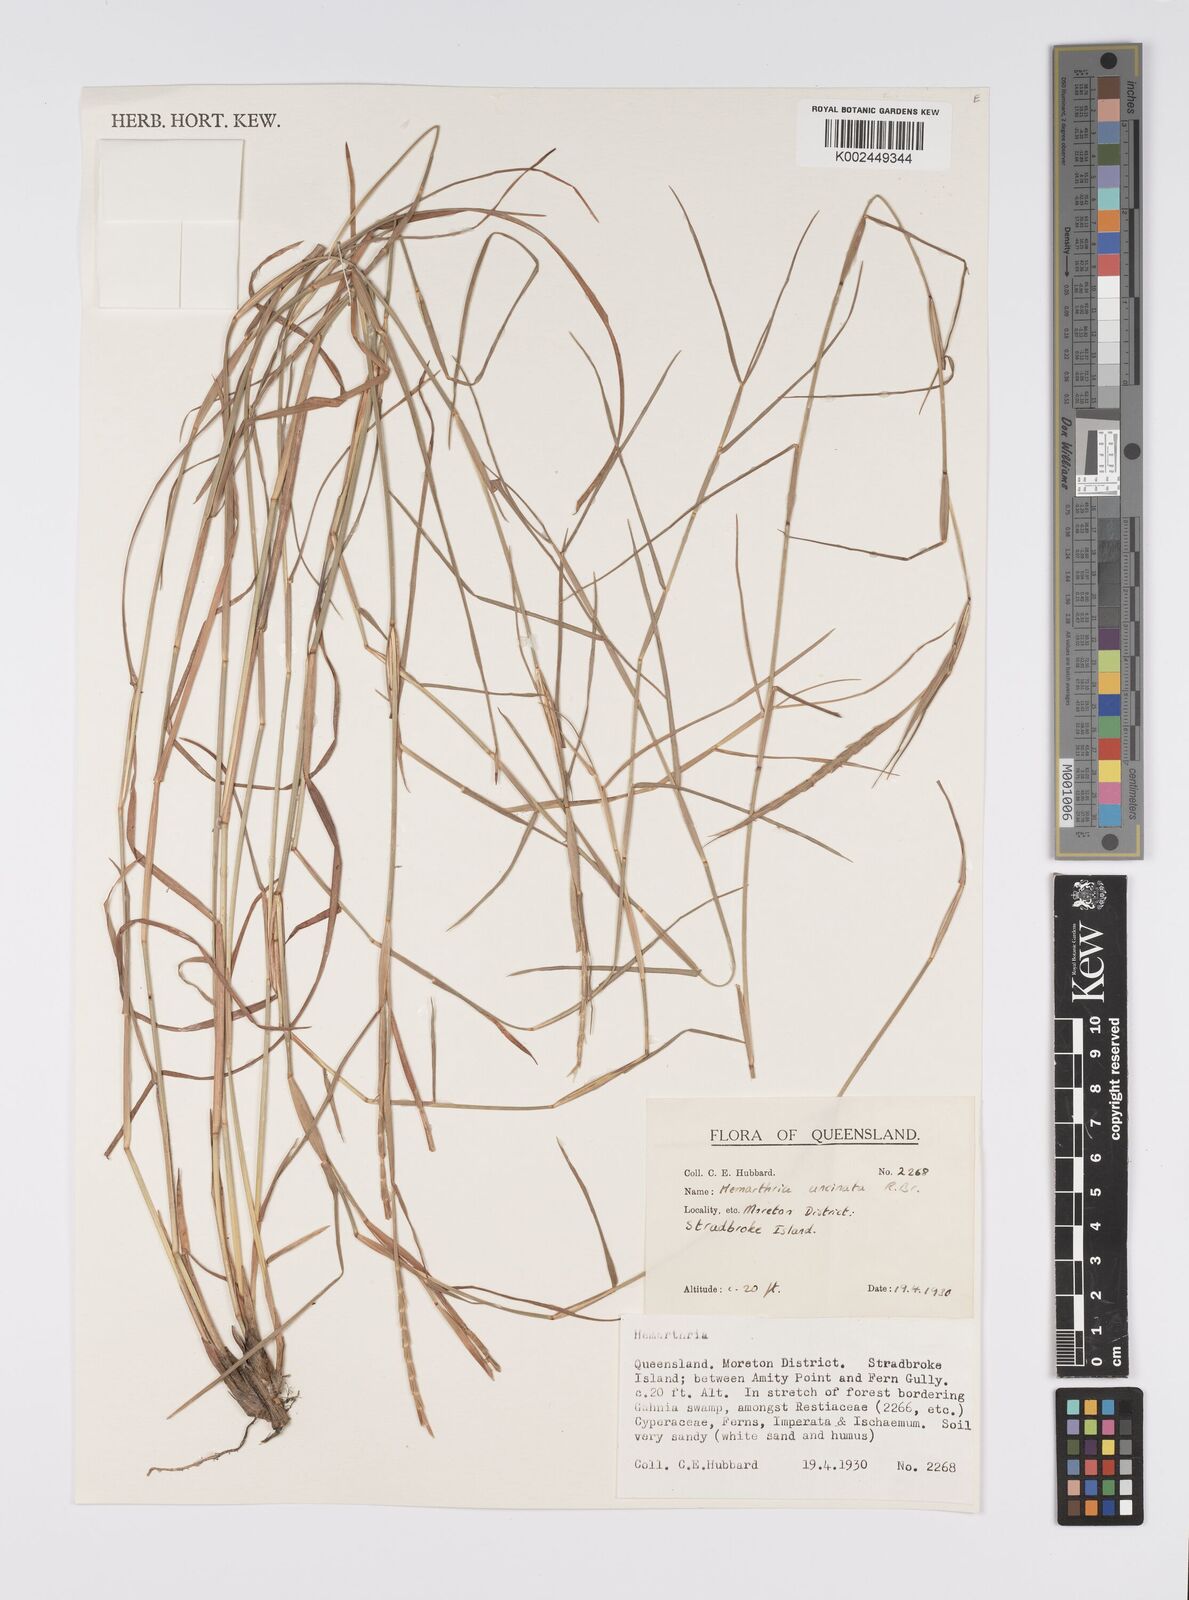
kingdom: Plantae
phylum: Tracheophyta
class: Liliopsida
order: Poales
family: Poaceae
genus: Hemarthria
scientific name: Hemarthria uncinata
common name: Matgrass
